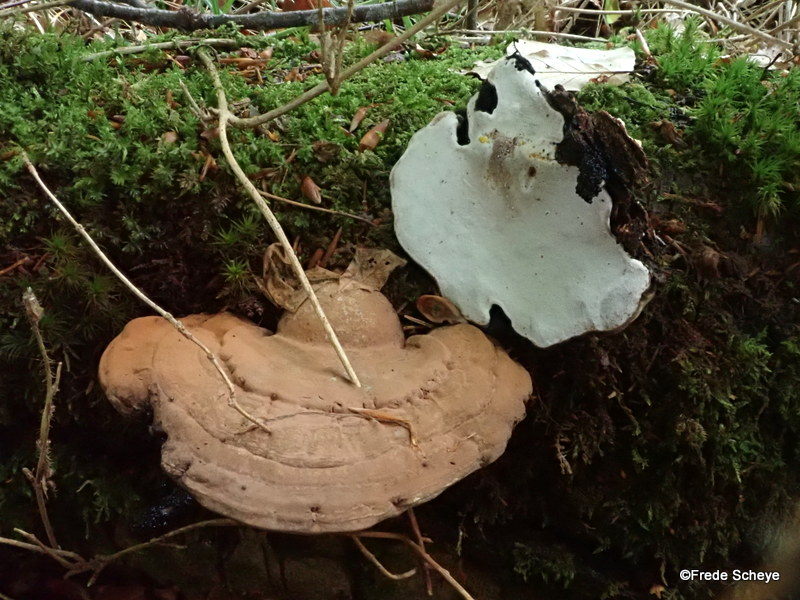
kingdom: Fungi
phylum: Basidiomycota
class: Agaricomycetes
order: Polyporales
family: Polyporaceae
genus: Ganoderma
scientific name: Ganoderma applanatum
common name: flad lakporesvamp
